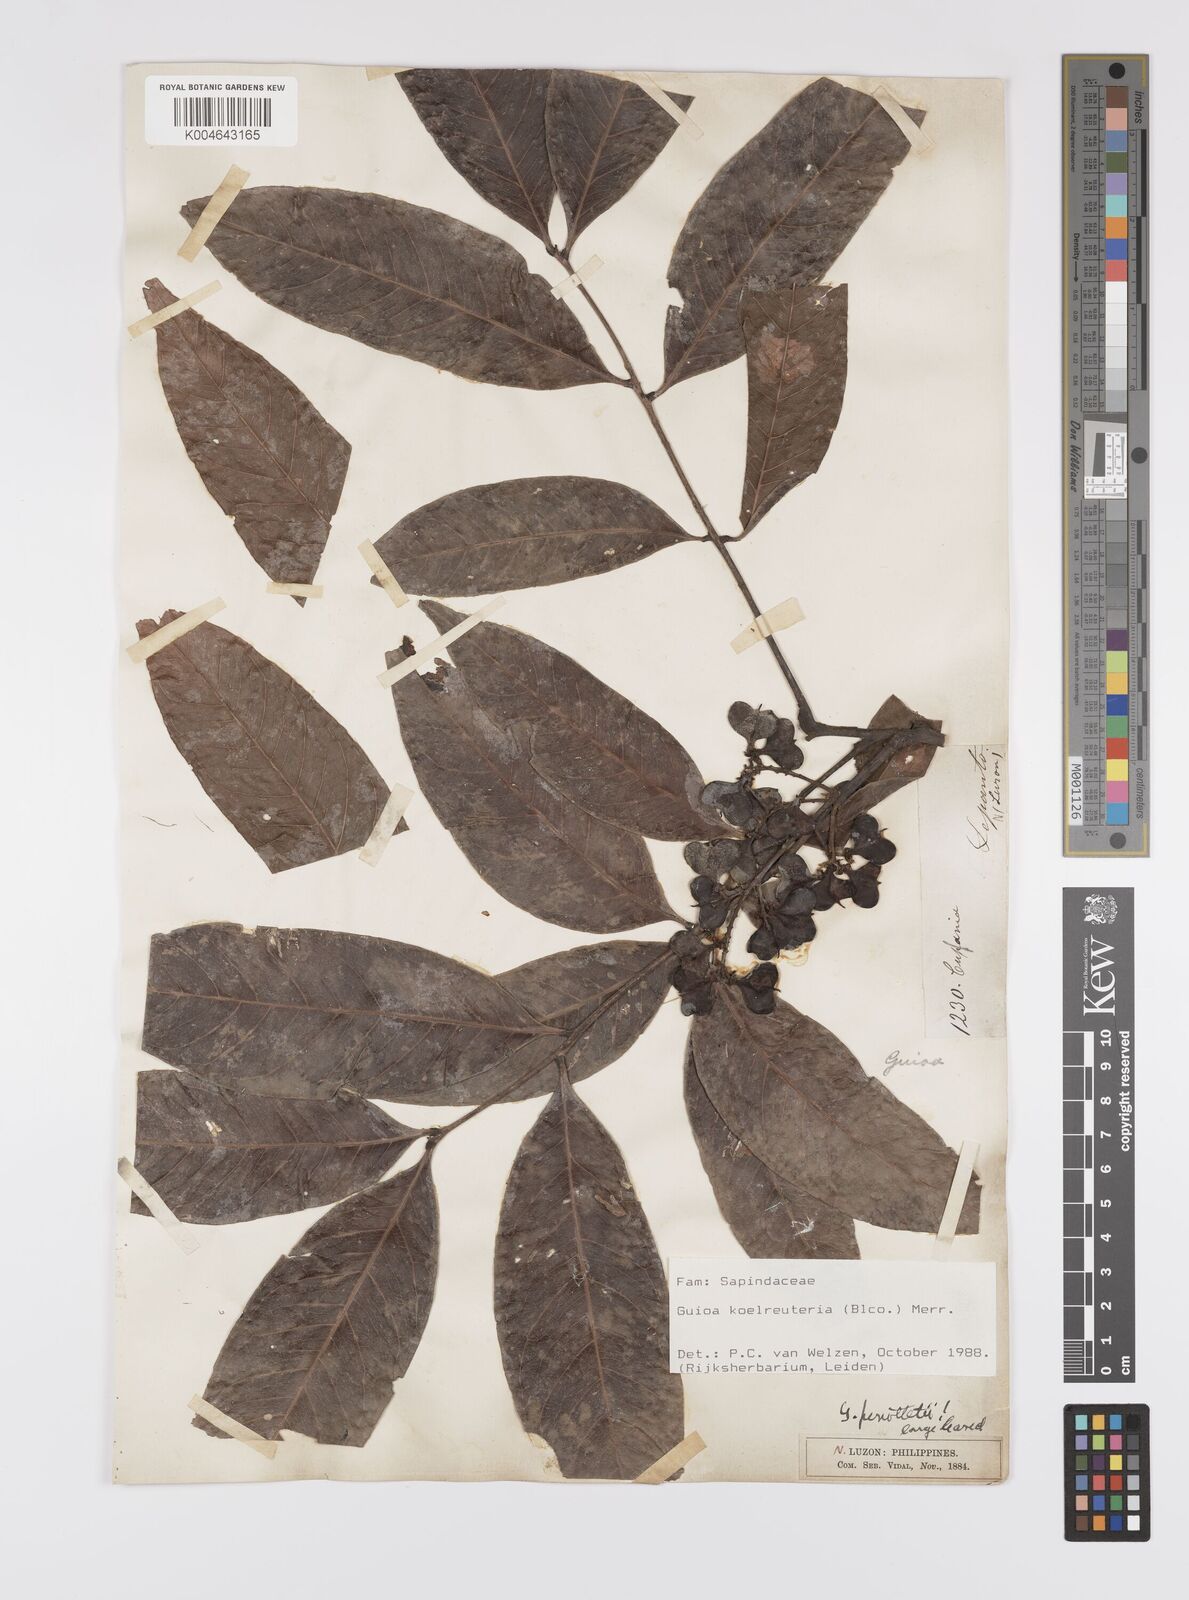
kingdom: Plantae
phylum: Tracheophyta
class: Magnoliopsida
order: Sapindales
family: Sapindaceae
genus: Guioa
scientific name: Guioa koelreuteria
